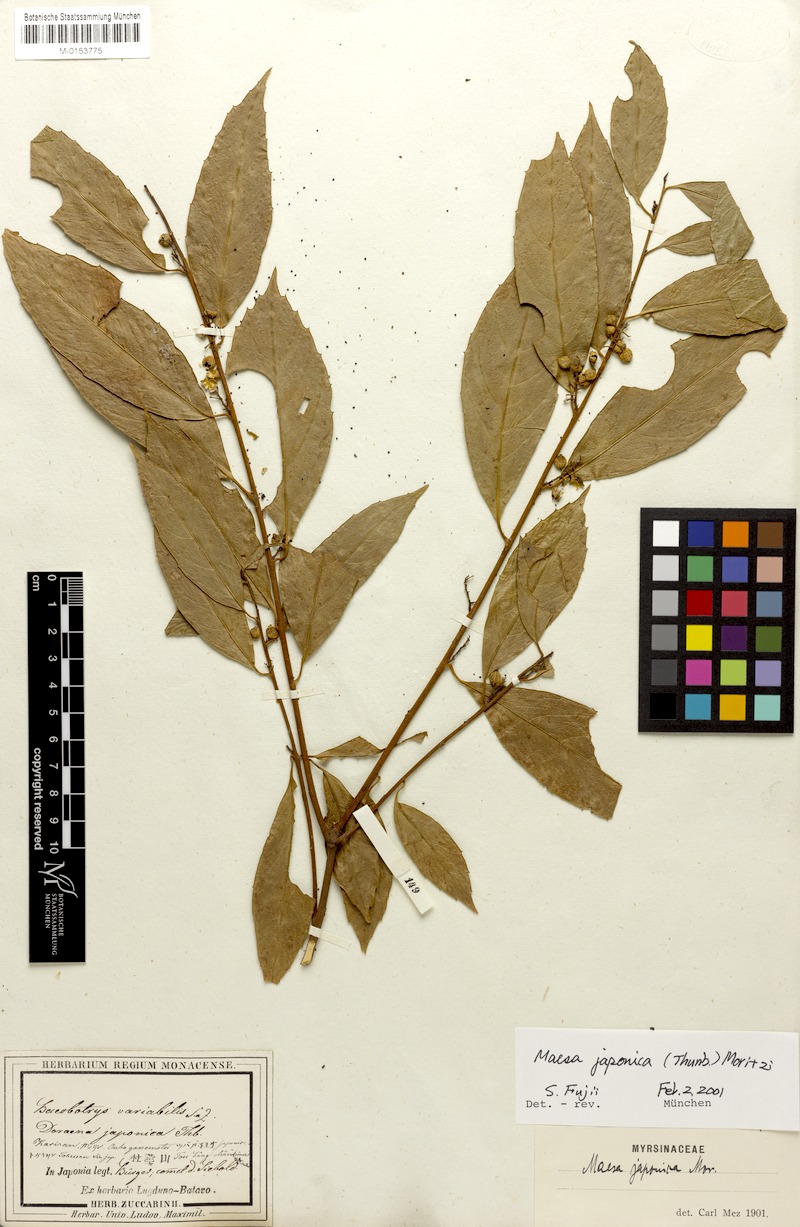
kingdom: Plantae
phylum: Tracheophyta
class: Magnoliopsida
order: Ericales
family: Primulaceae
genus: Maesa
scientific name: Maesa japonica
